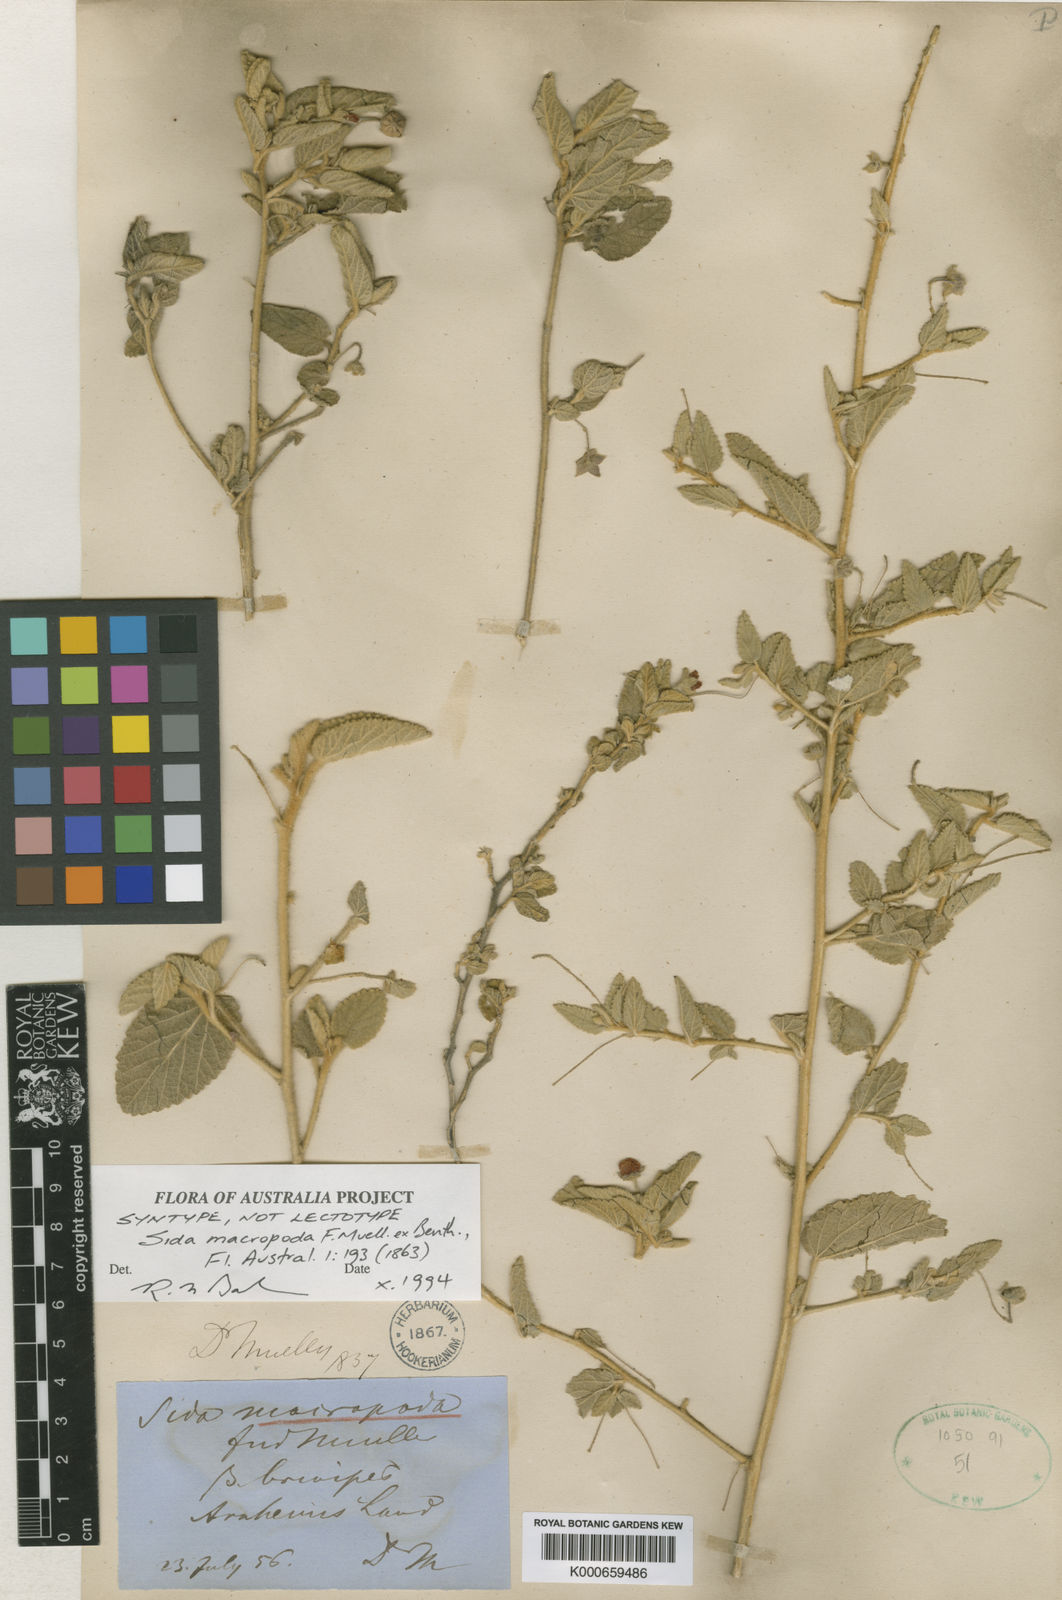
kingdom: Plantae
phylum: Tracheophyta
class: Magnoliopsida
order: Malvales
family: Malvaceae
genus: Sida
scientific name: Sida macropoda
